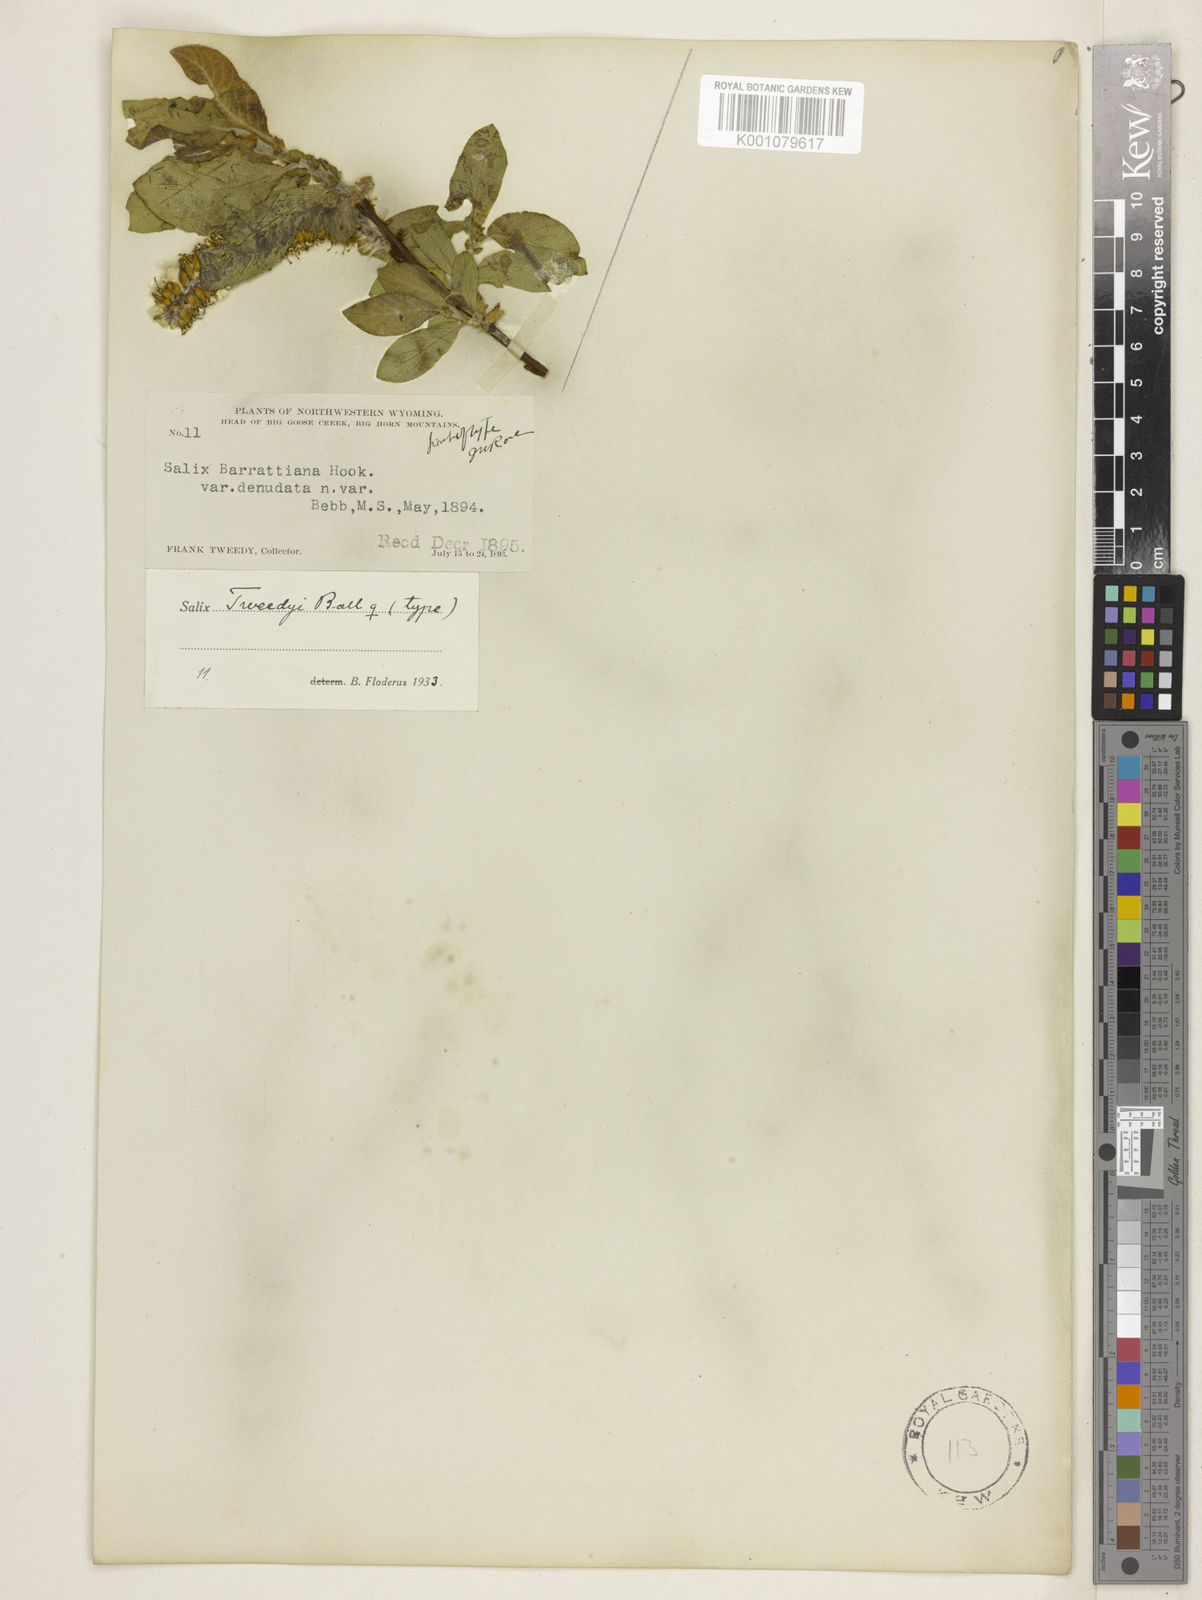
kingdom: Plantae
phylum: Tracheophyta
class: Magnoliopsida
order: Malpighiales
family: Salicaceae
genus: Salix
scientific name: Salix tweedyi
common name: Tweedy's willow
